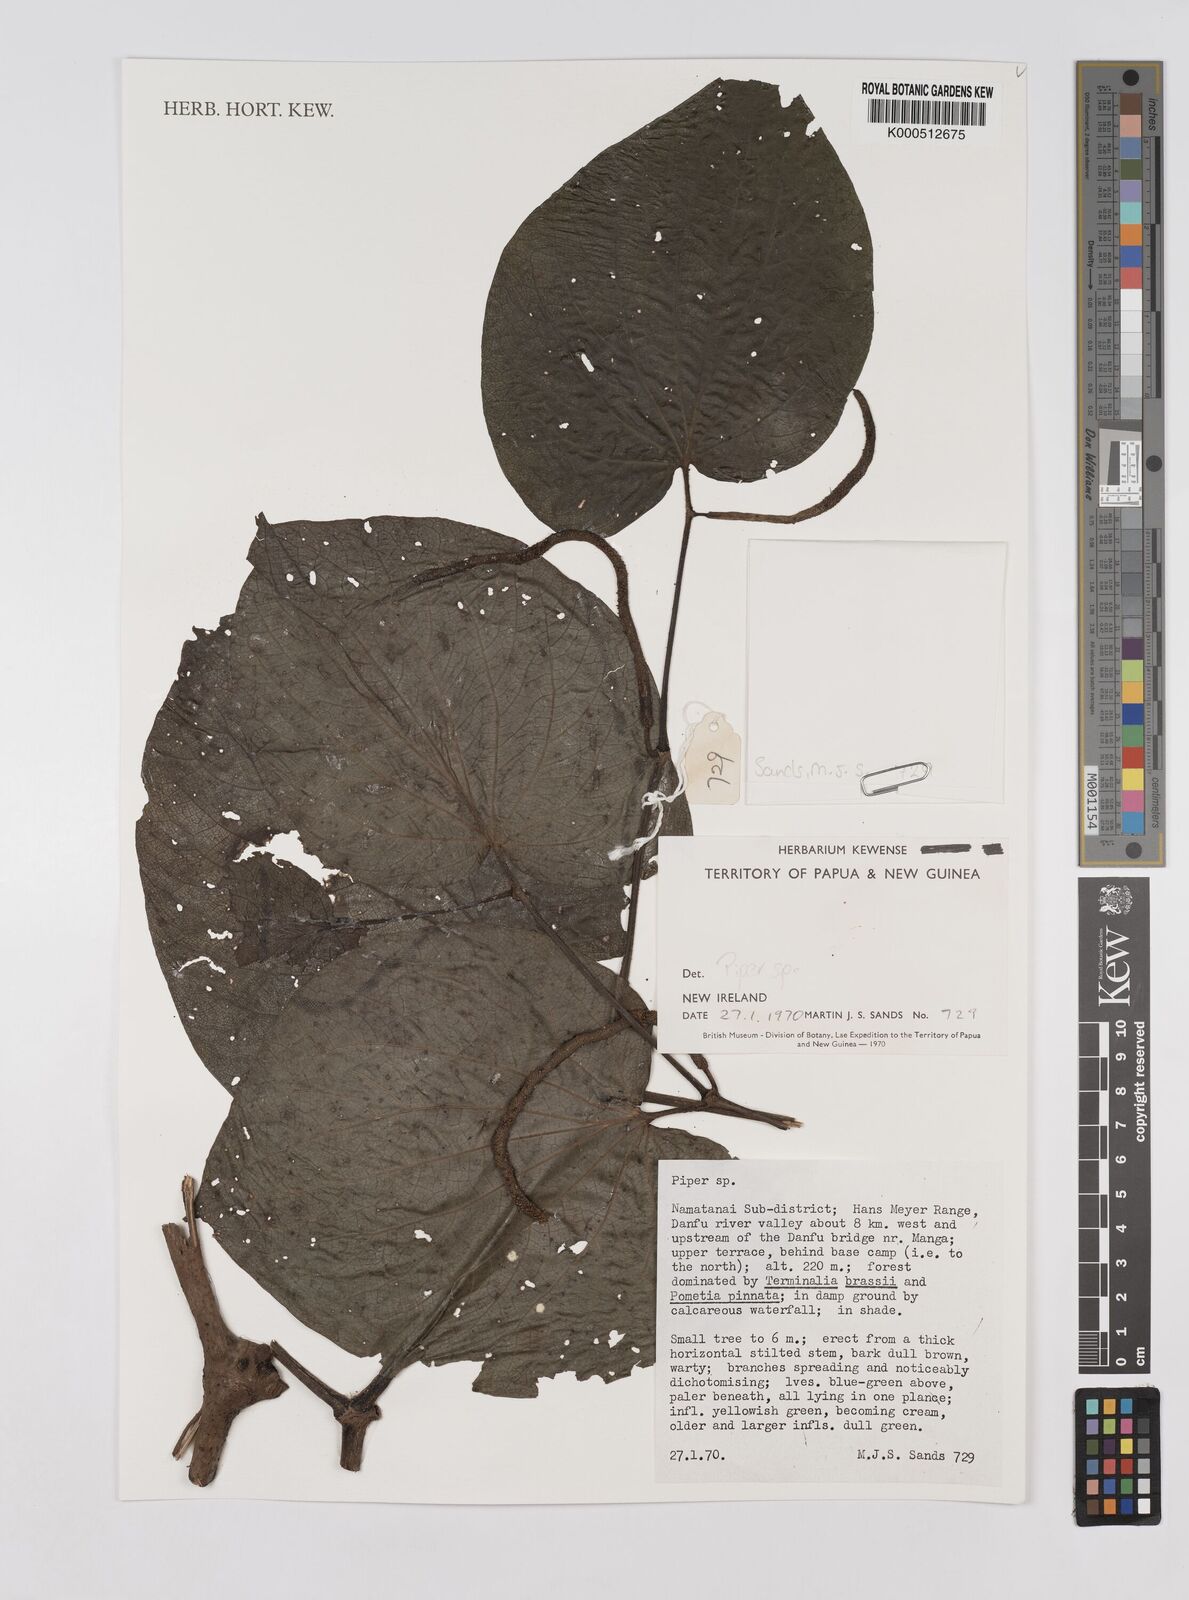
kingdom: Plantae
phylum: Tracheophyta
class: Magnoliopsida
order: Piperales
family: Piperaceae
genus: Piper
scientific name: Piper
